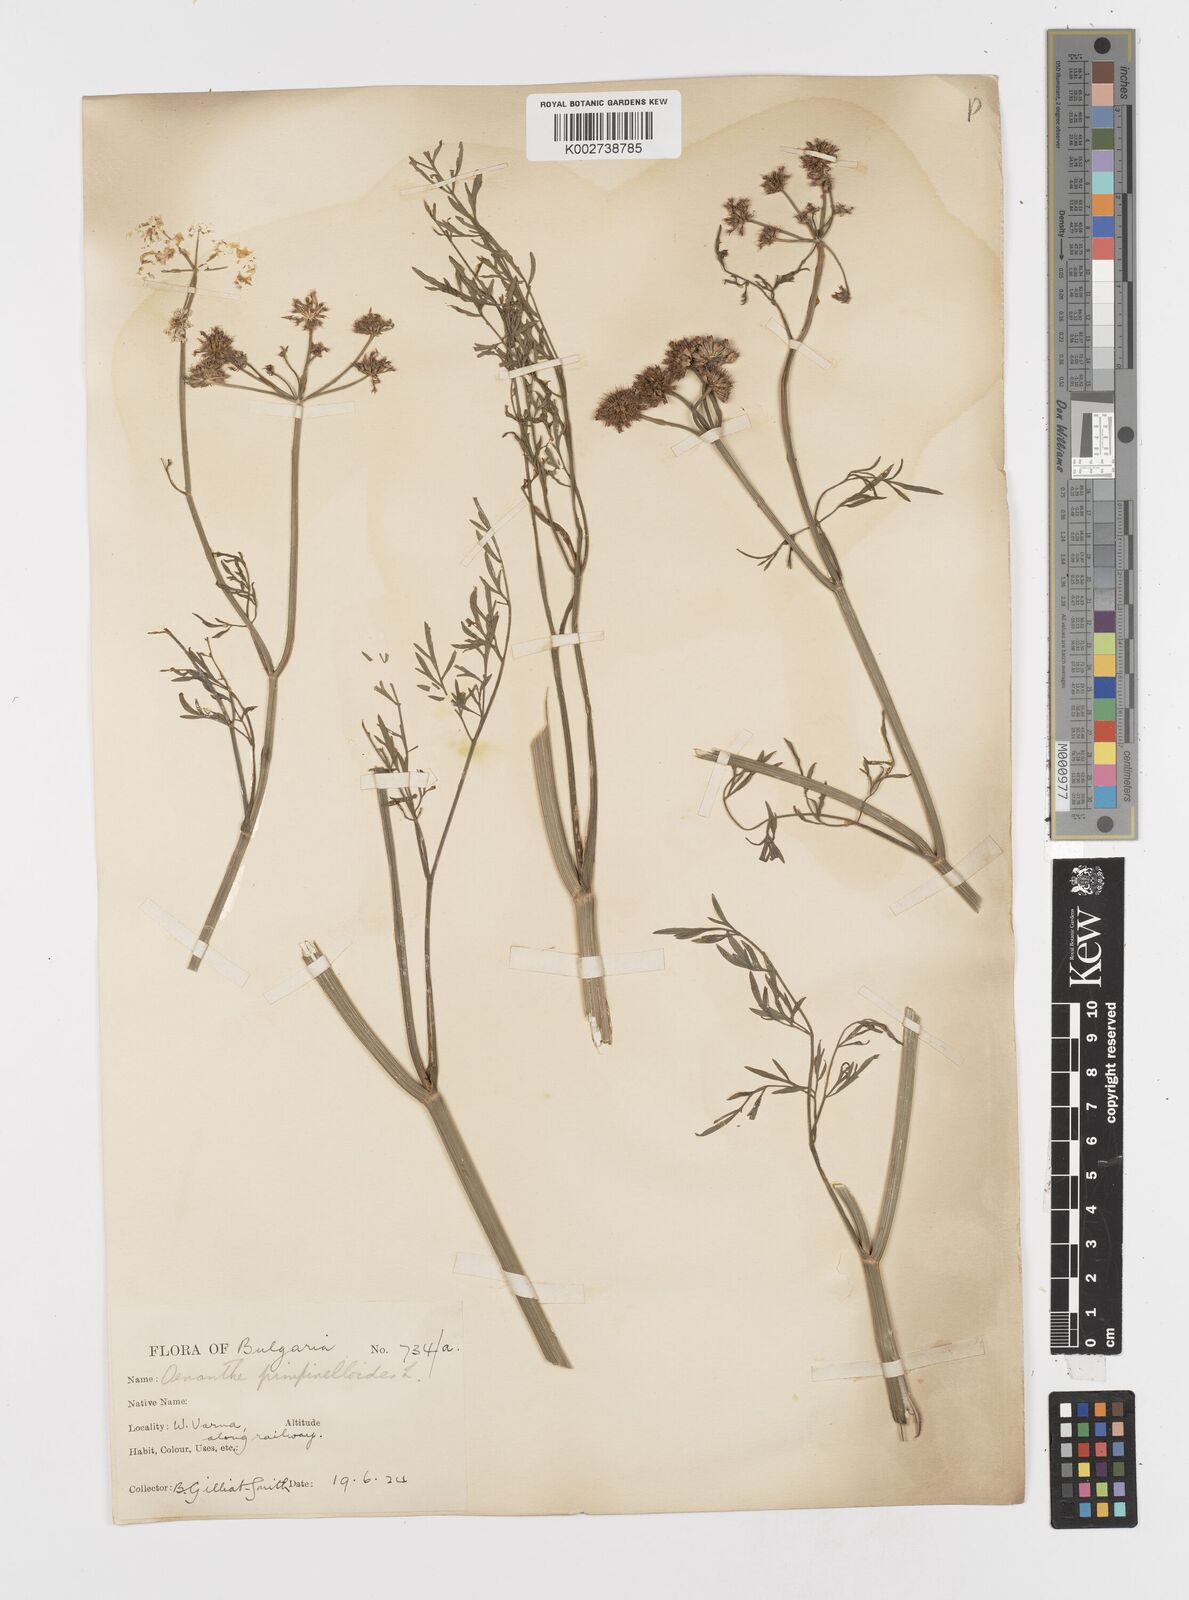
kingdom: Plantae
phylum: Tracheophyta
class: Magnoliopsida
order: Apiales
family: Apiaceae
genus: Oenanthe
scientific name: Oenanthe pimpinelloides
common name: Corky-fruited water-dropwort
